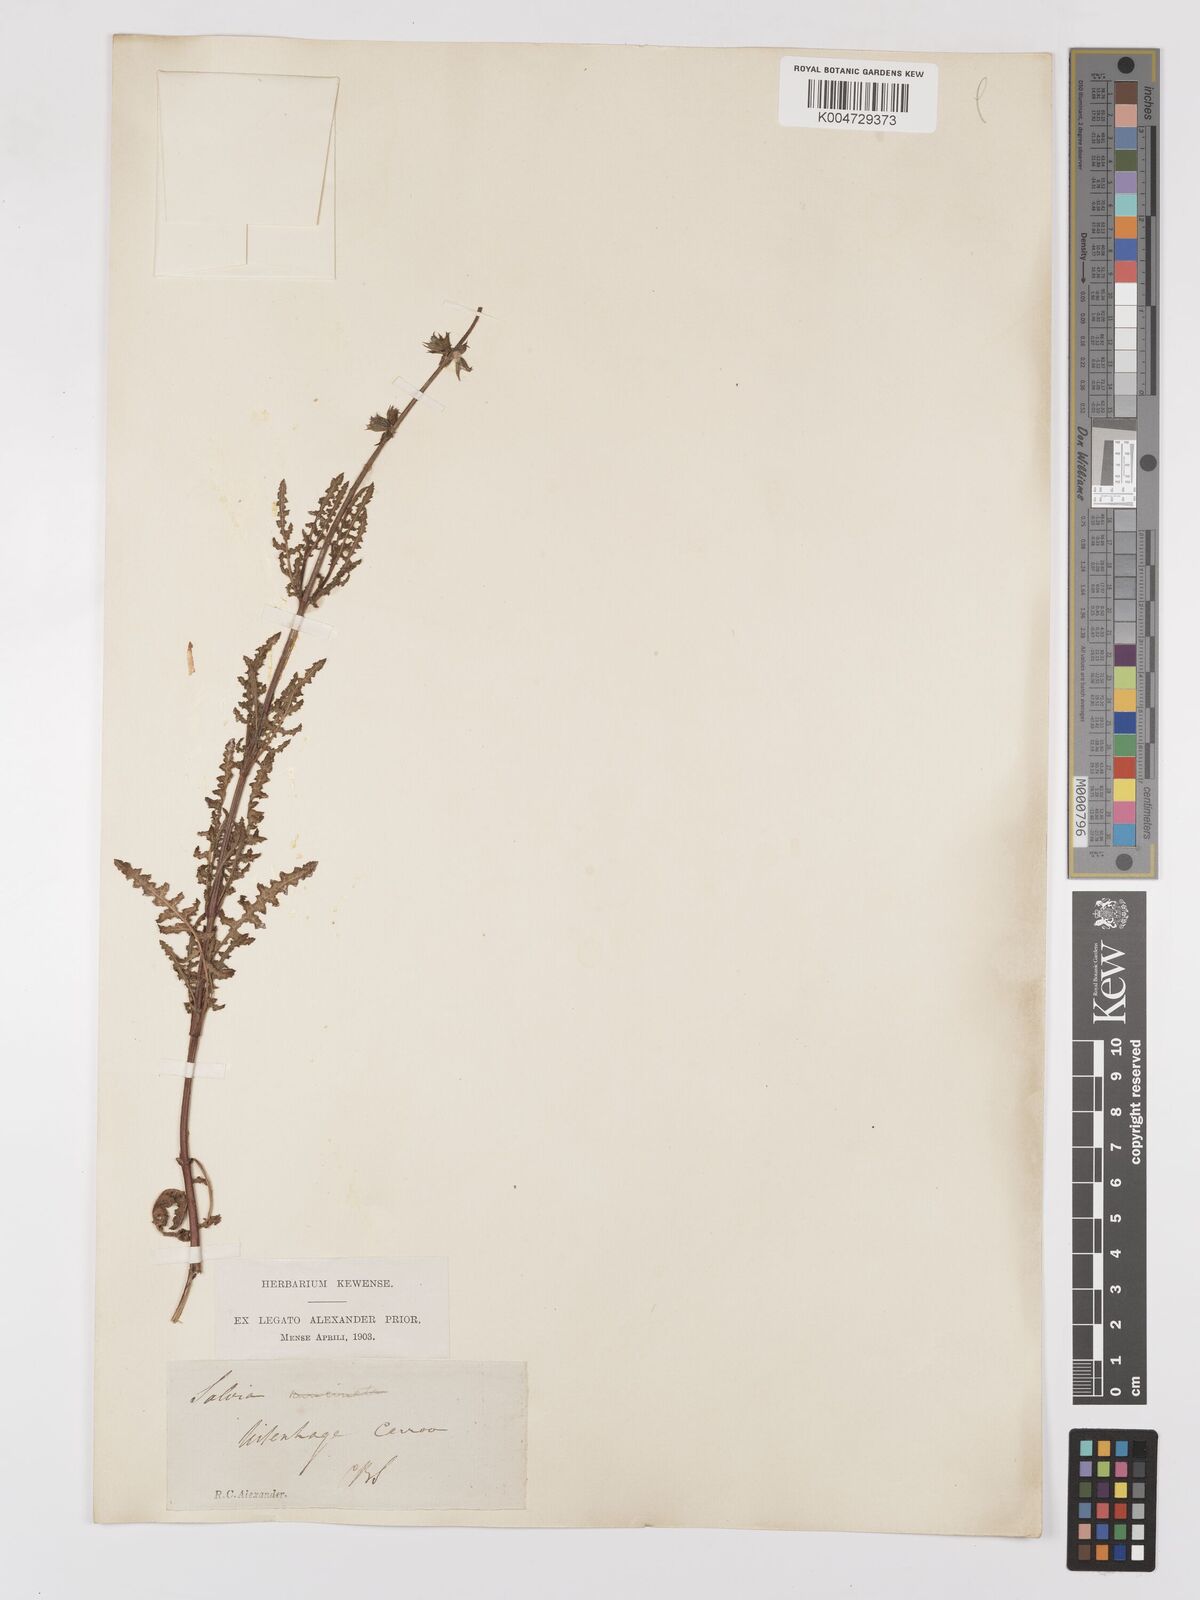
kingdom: Plantae
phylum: Tracheophyta
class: Magnoliopsida
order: Lamiales
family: Lamiaceae
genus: Salvia
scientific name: Salvia stenophylla
